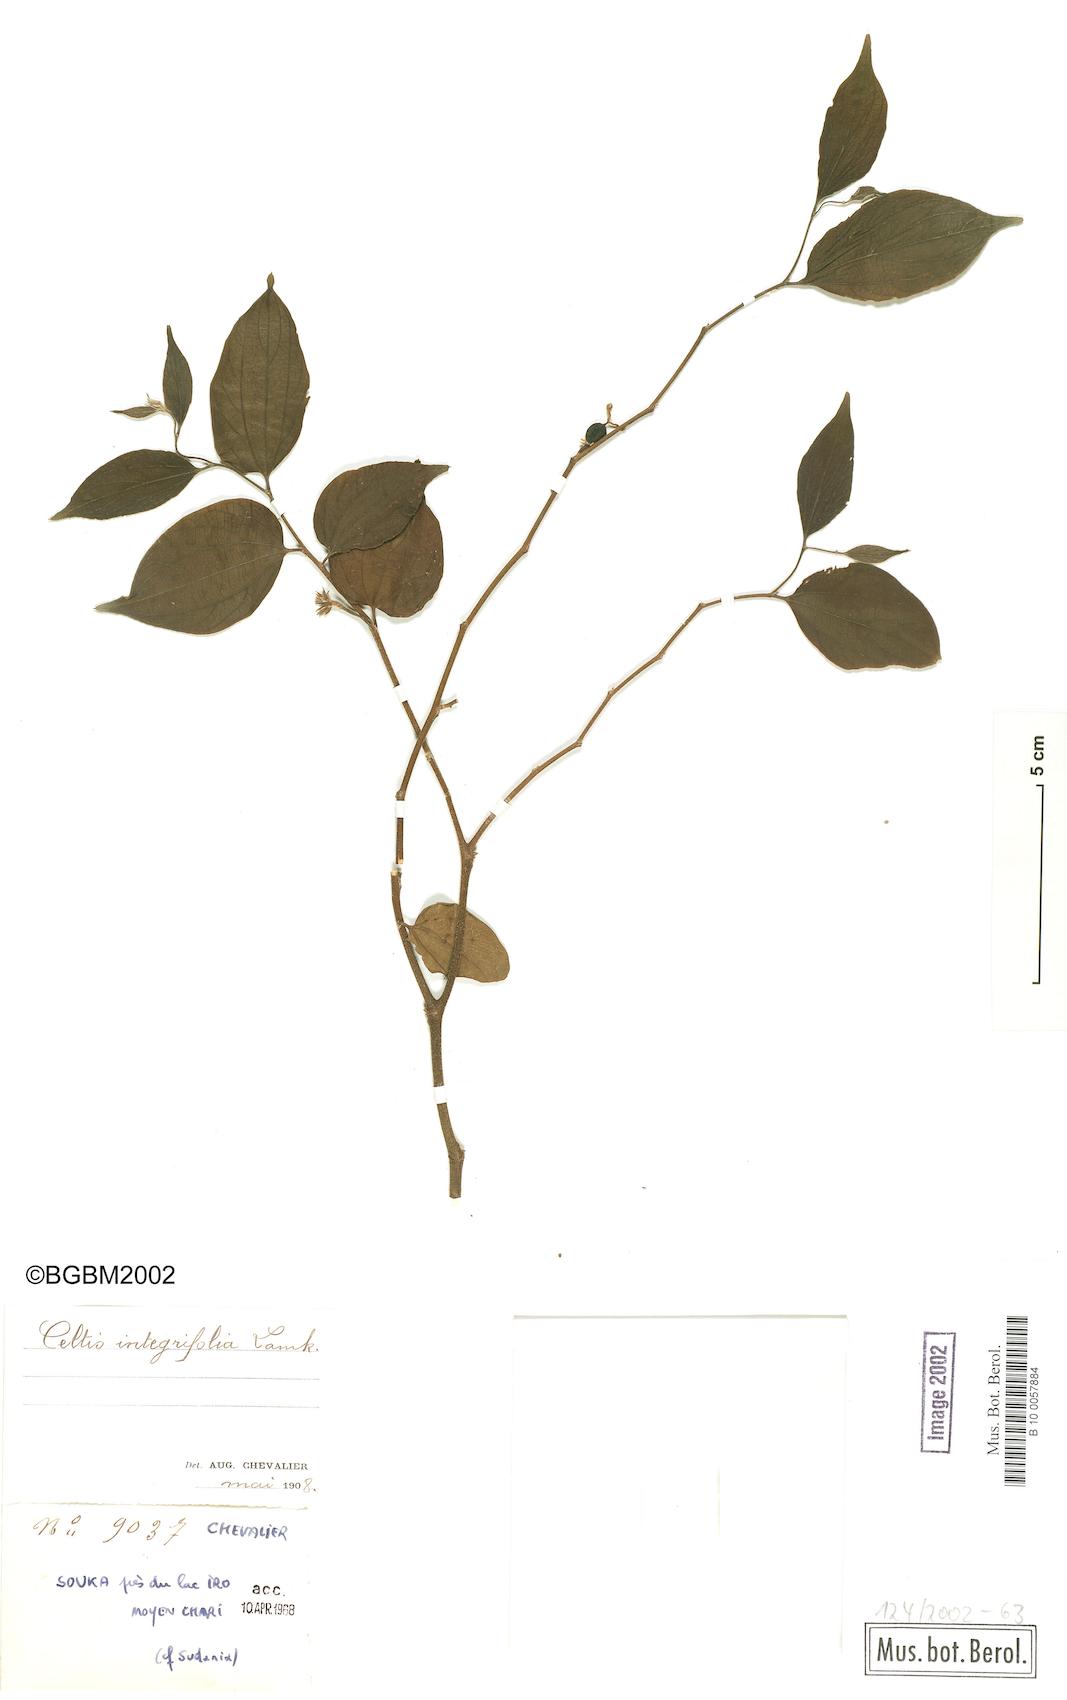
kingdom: Plantae
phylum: Tracheophyta
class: Magnoliopsida
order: Rosales
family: Cannabaceae
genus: Celtis
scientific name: Celtis toka
